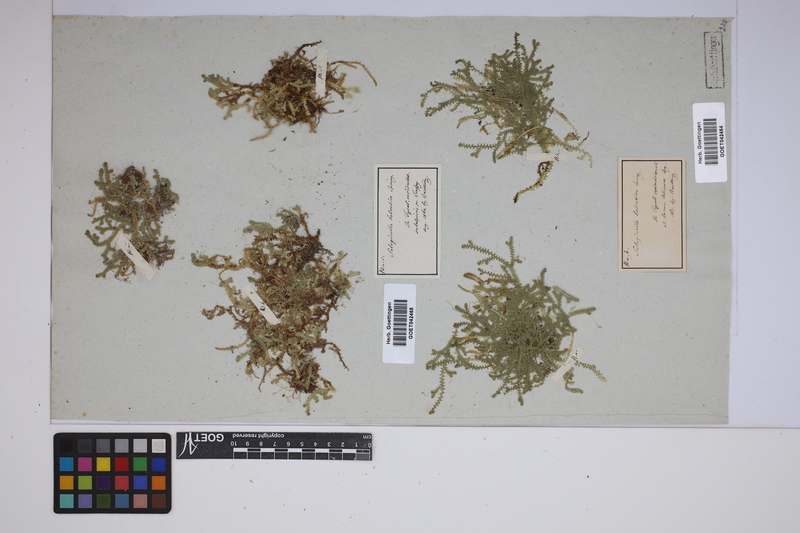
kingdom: Plantae
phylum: Tracheophyta
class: Lycopodiopsida
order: Selaginellales
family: Selaginellaceae
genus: Selaginella
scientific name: Selaginella helvetica
